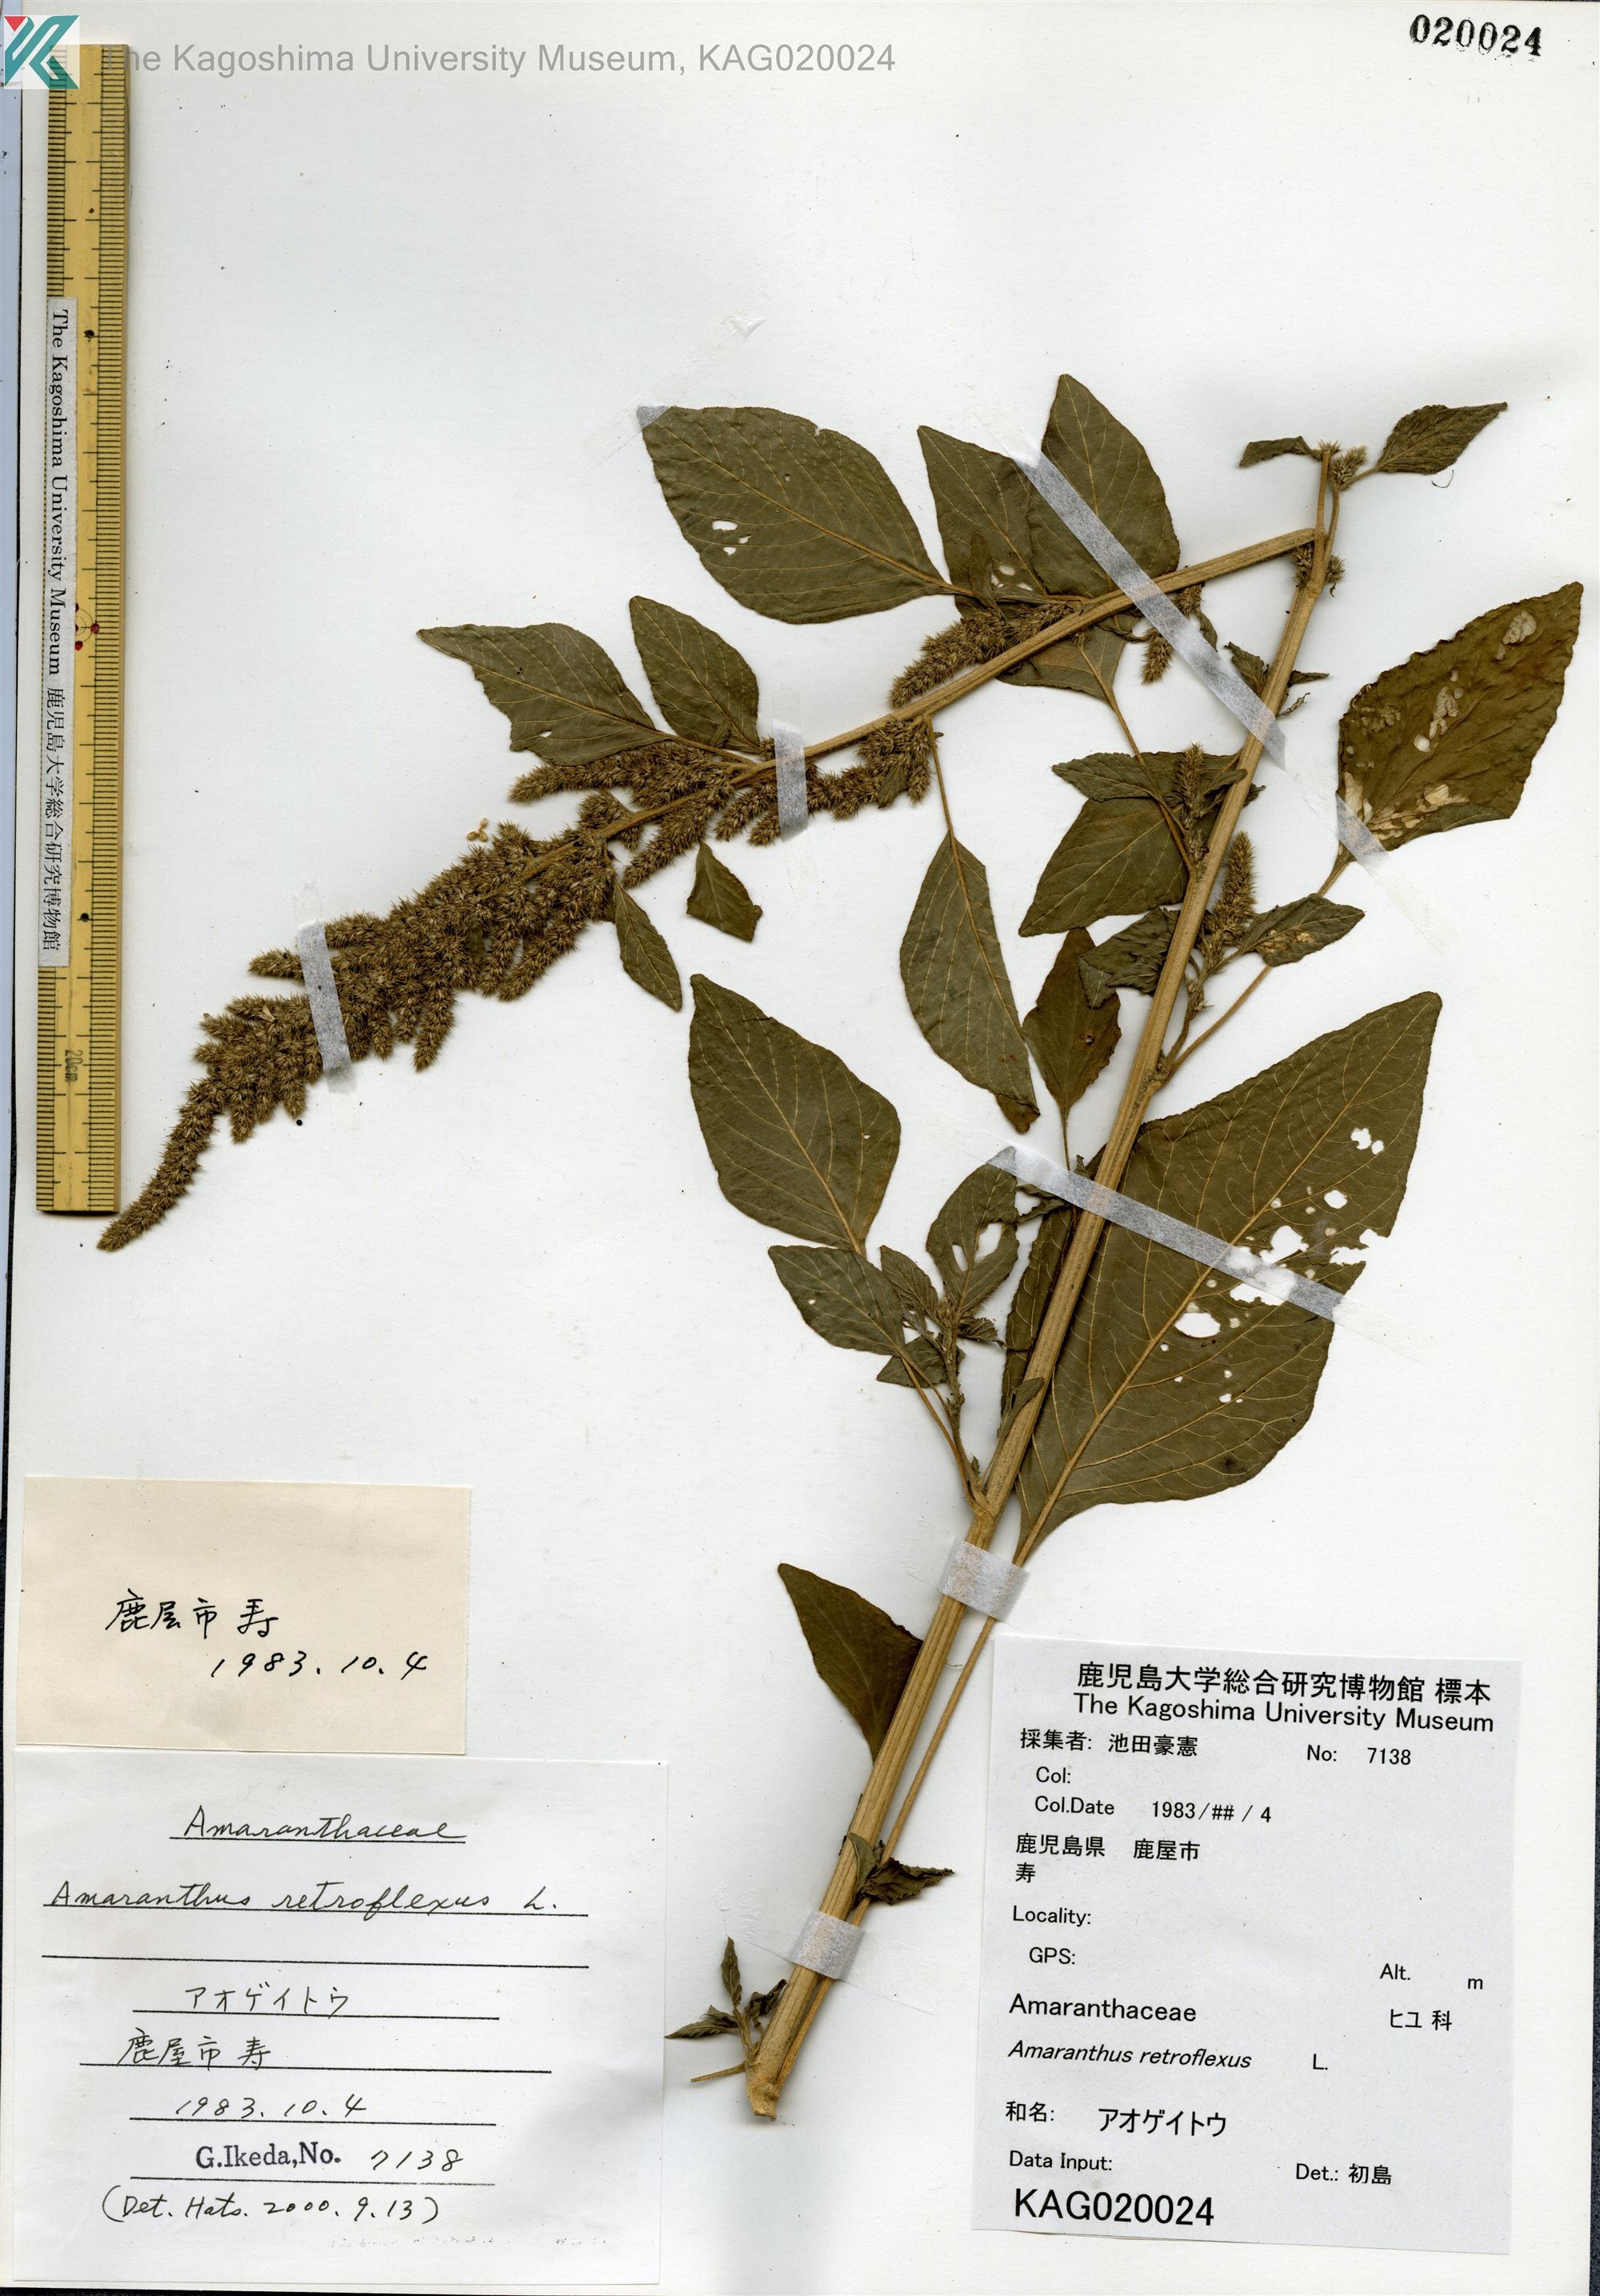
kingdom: Plantae
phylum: Tracheophyta
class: Magnoliopsida
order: Caryophyllales
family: Amaranthaceae
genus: Amaranthus
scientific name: Amaranthus retroflexus
